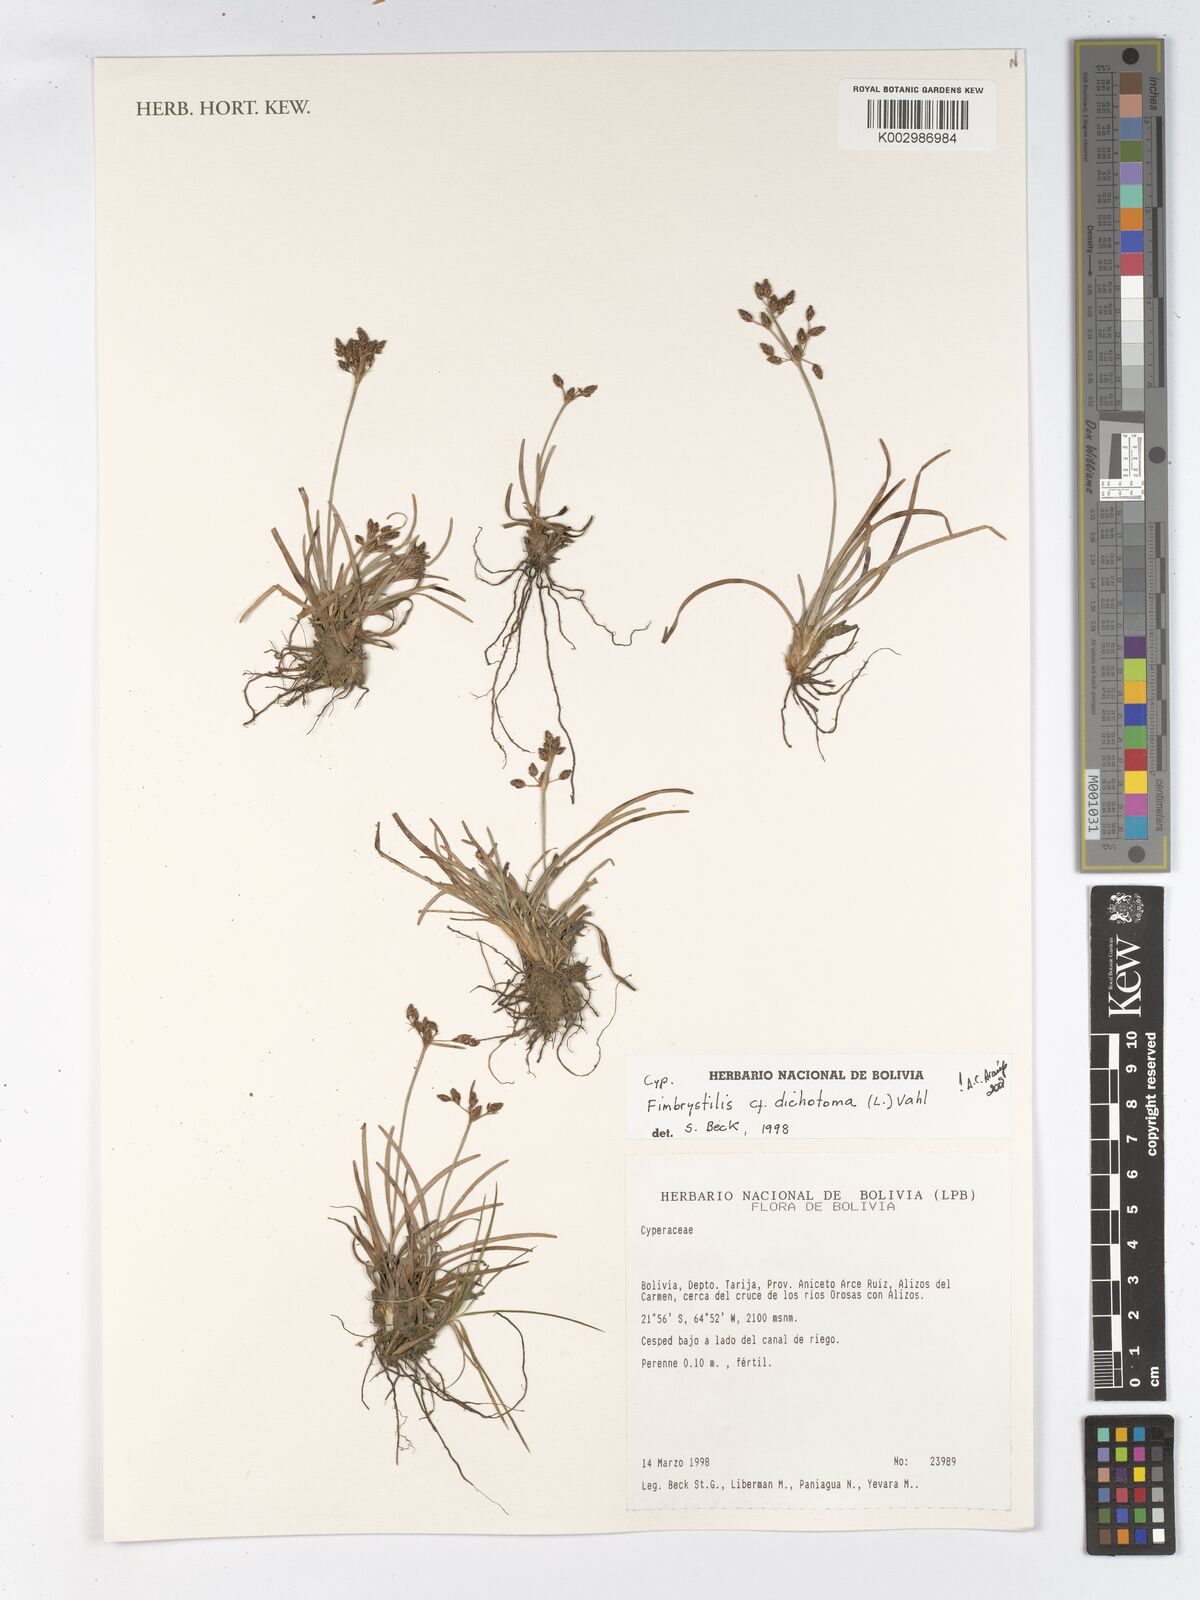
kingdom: Plantae
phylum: Tracheophyta
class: Liliopsida
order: Poales
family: Cyperaceae
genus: Fimbristylis
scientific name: Fimbristylis dichotoma
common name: Forked fimbry
